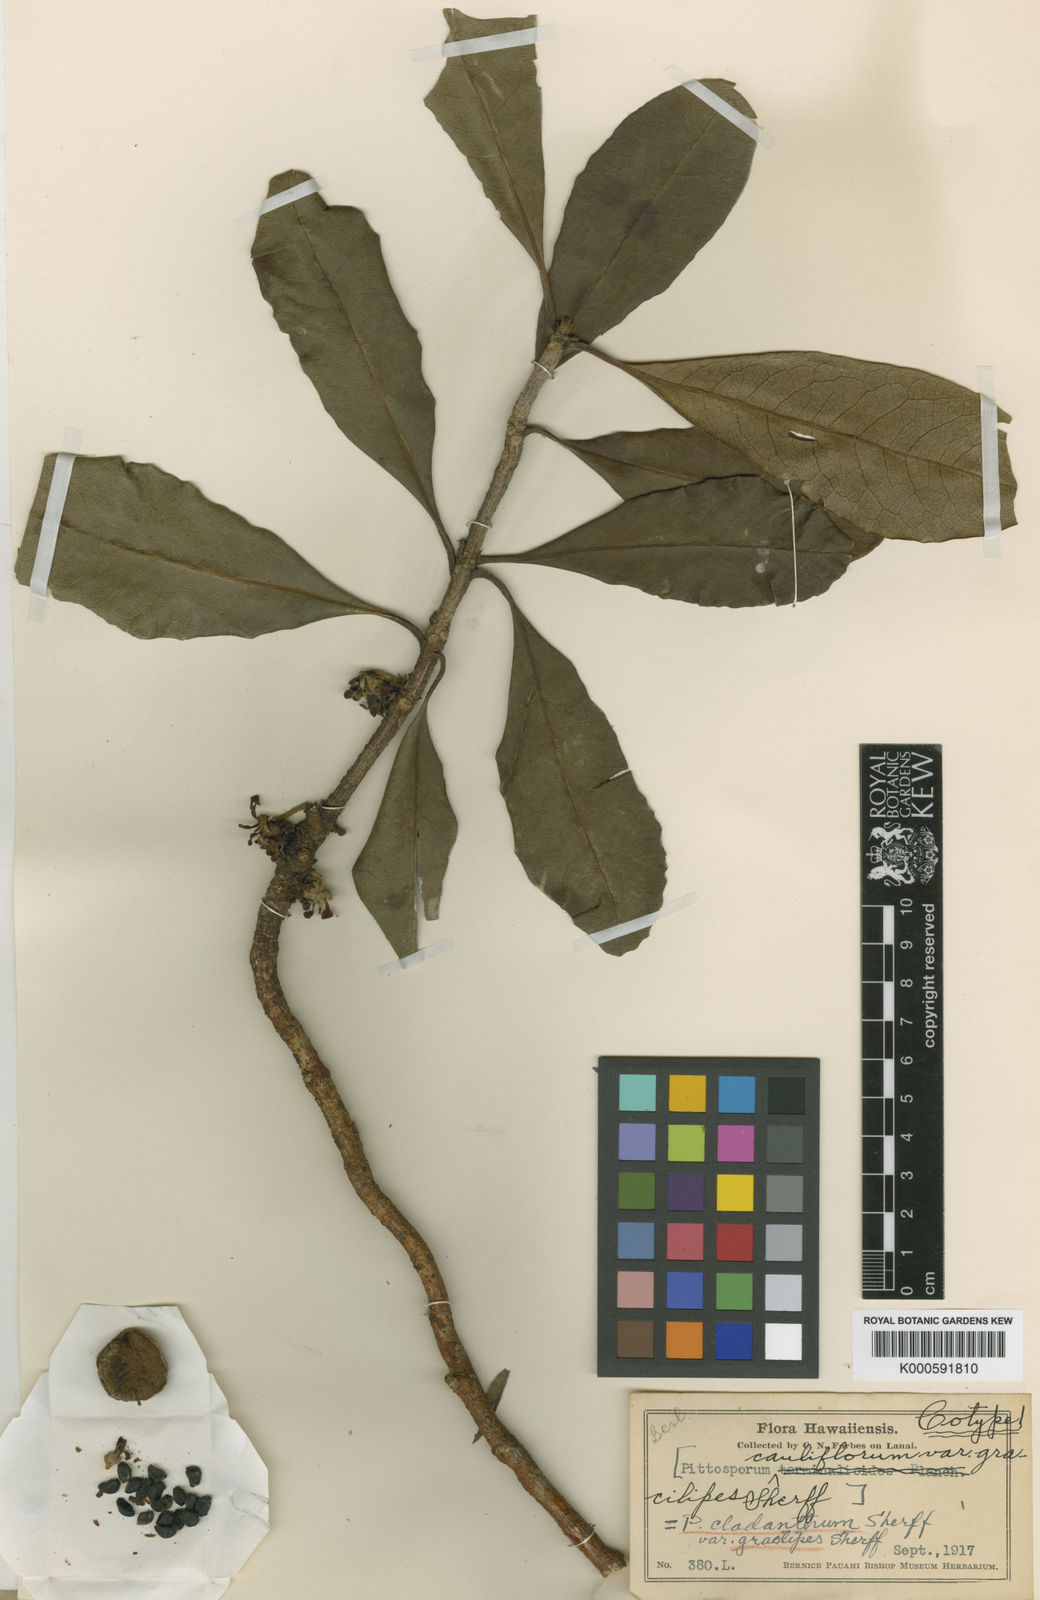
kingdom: Plantae
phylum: Tracheophyta
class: Magnoliopsida
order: Apiales
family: Pittosporaceae
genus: Pittosporum
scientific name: Pittosporum confertiflorum
